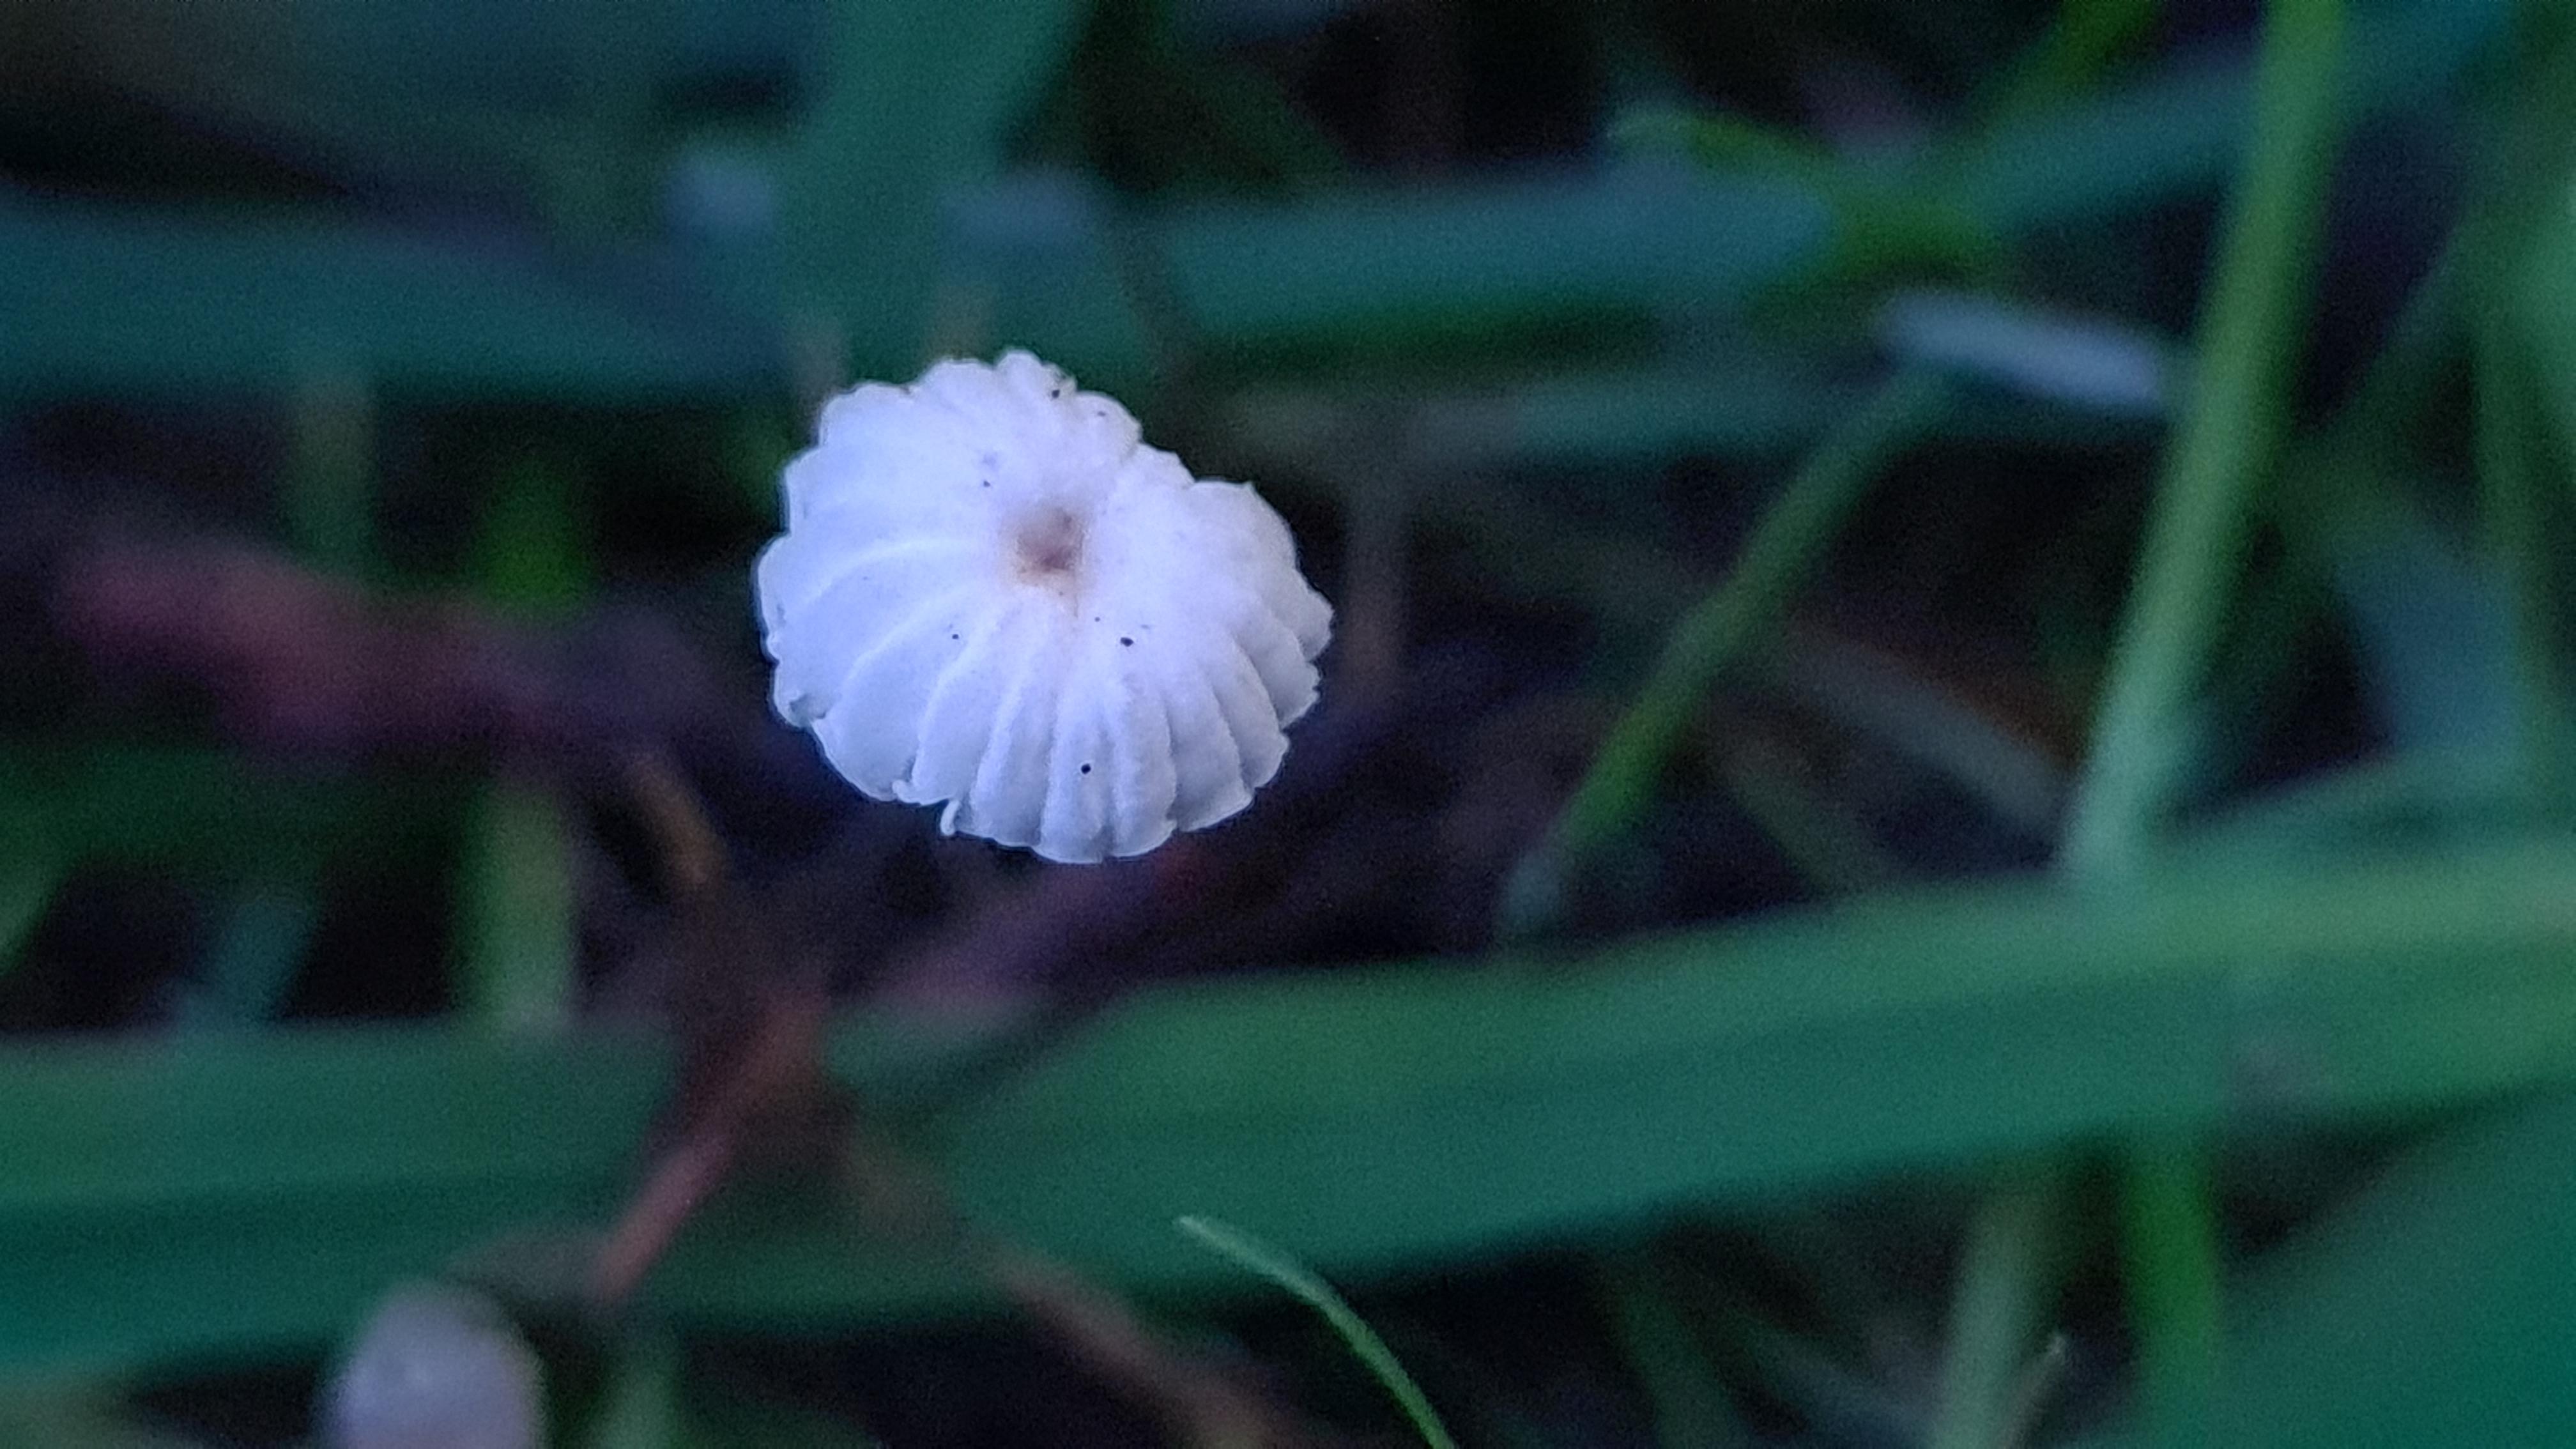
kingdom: Fungi
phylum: Basidiomycota
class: Agaricomycetes
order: Agaricales
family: Marasmiaceae
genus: Marasmius
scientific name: Marasmius rotula
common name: hjul-bruskhat
